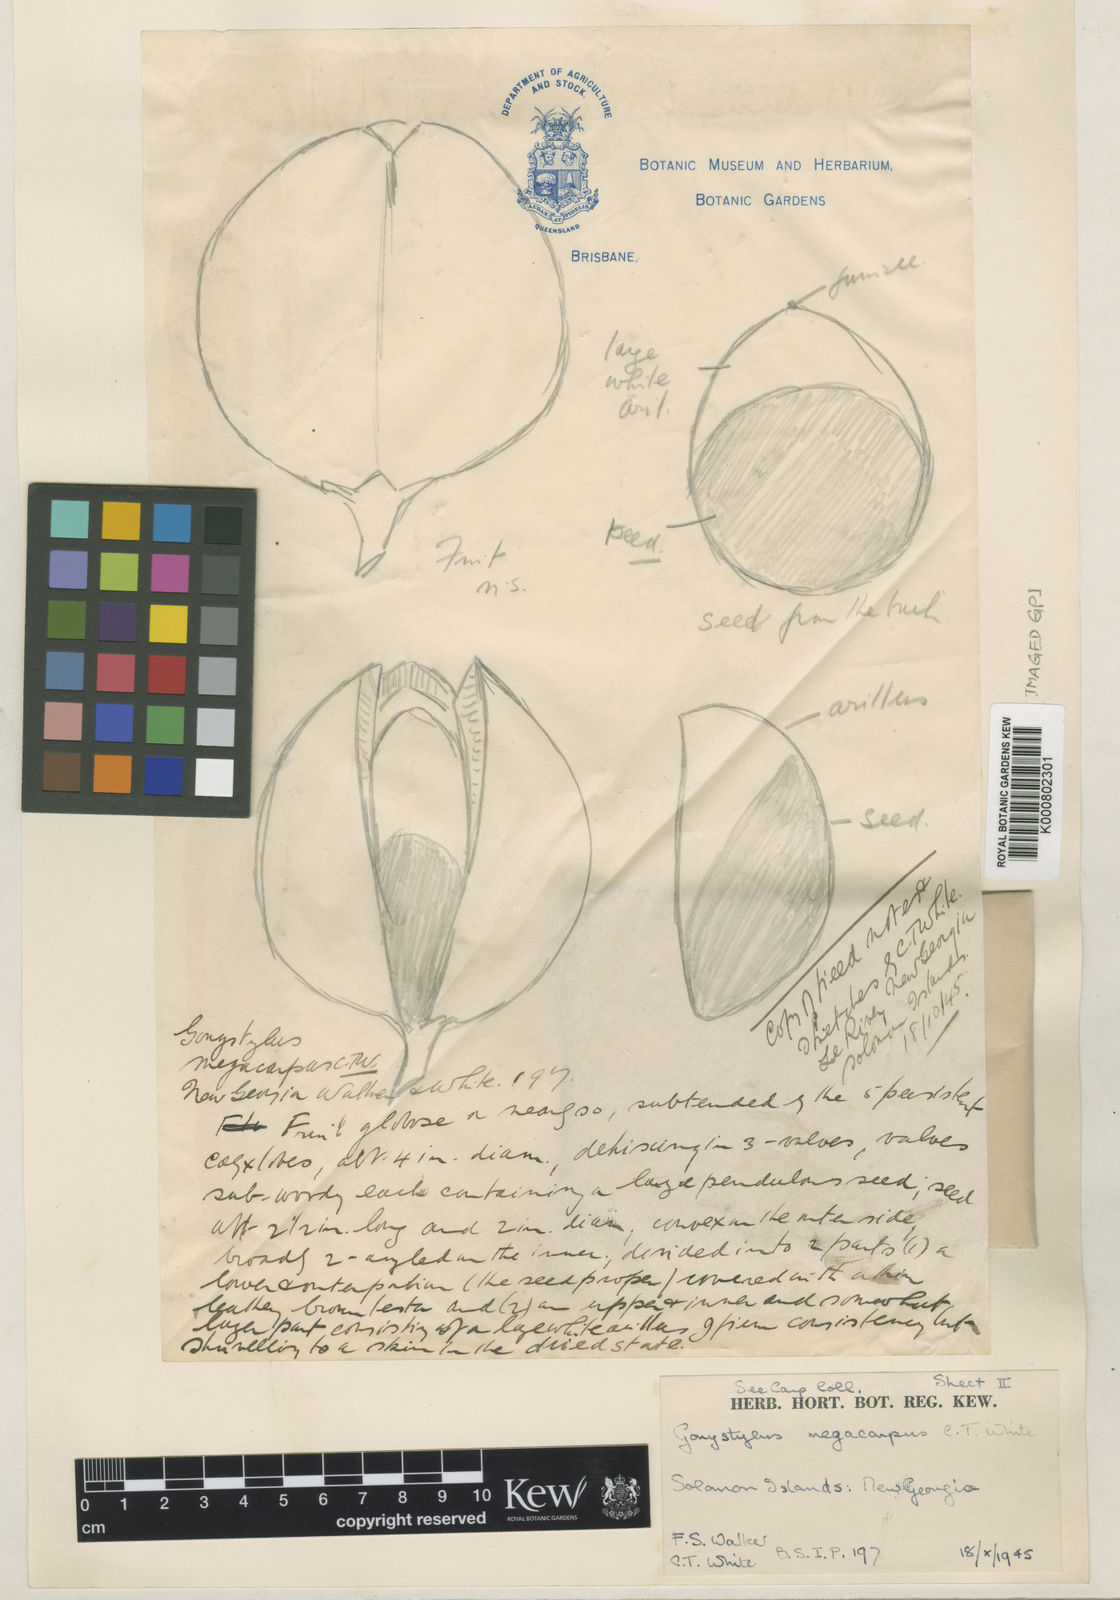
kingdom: Plantae
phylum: Tracheophyta
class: Magnoliopsida
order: Malvales
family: Thymelaeaceae
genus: Gonystylus
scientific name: Gonystylus macrophyllus
